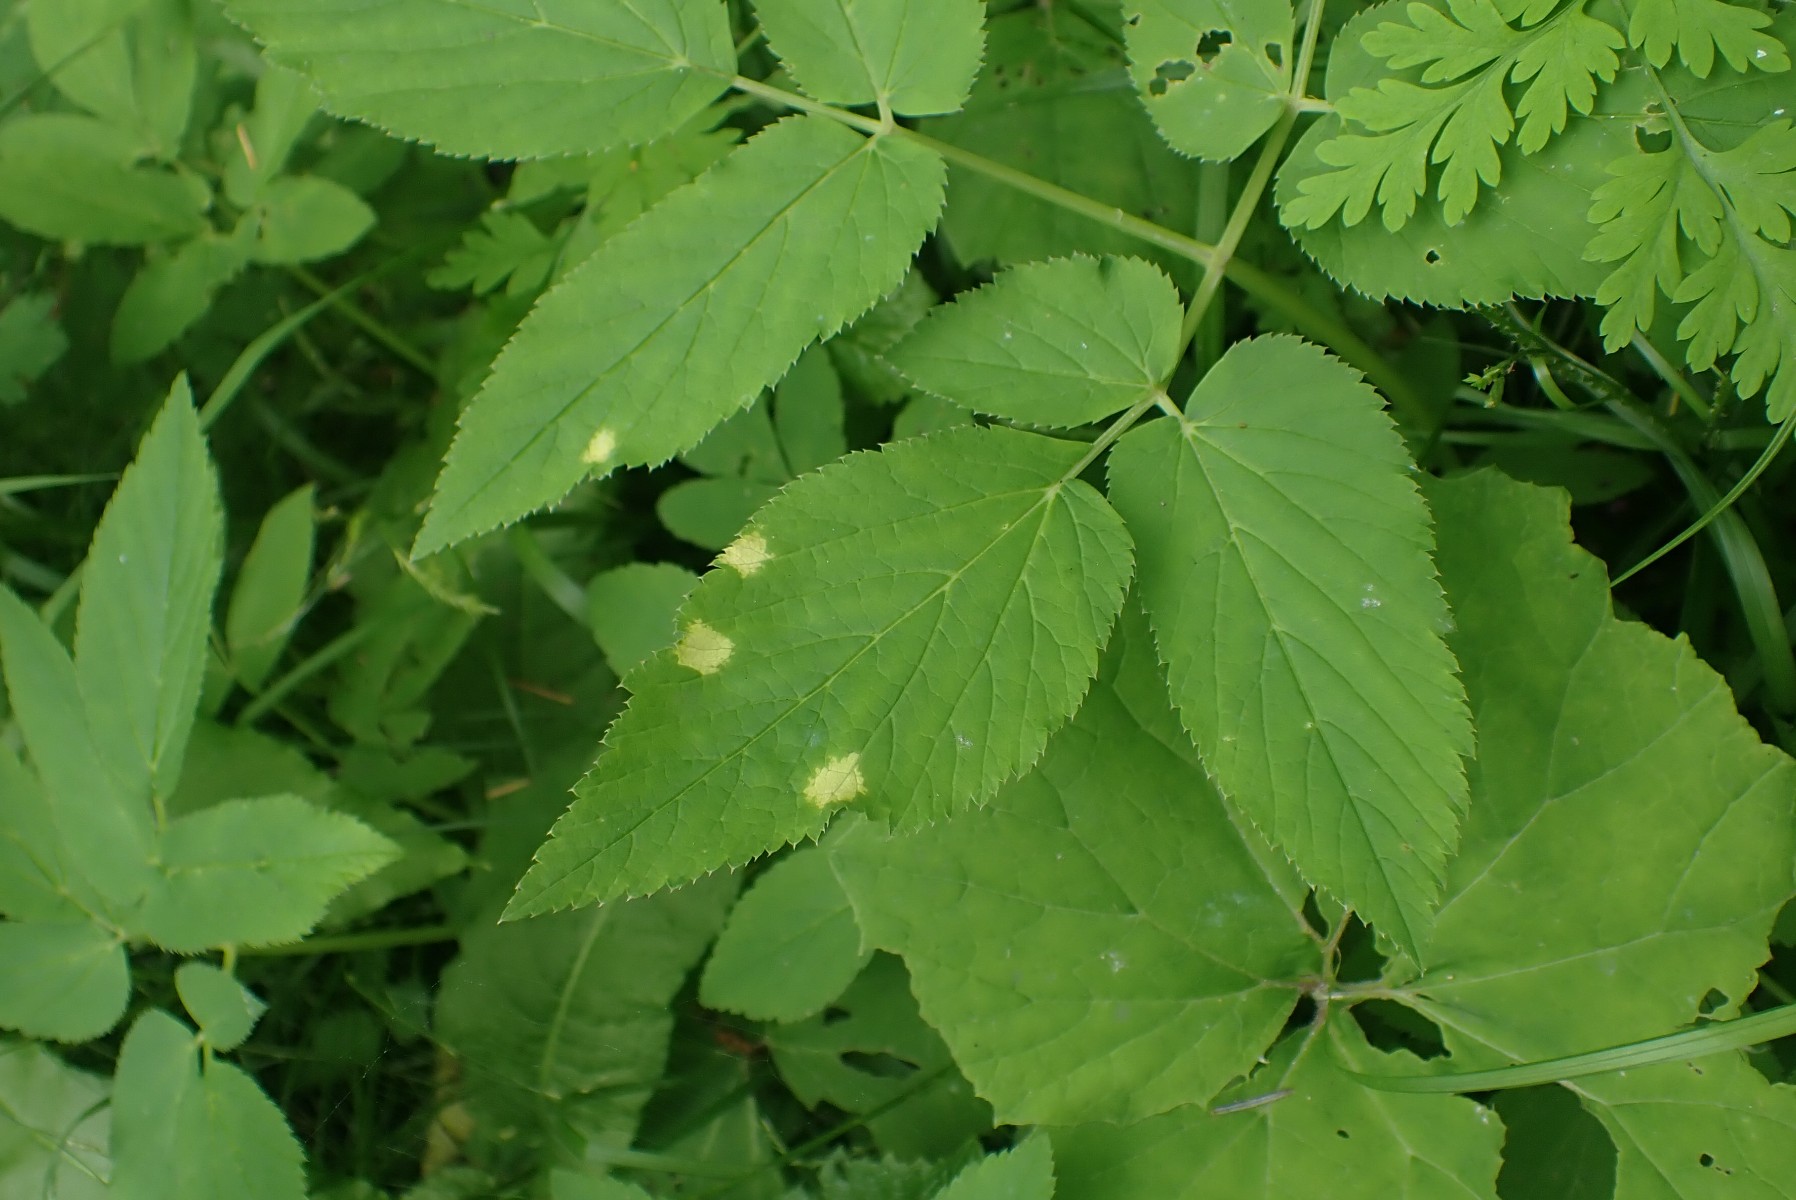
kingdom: Chromista
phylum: Oomycota
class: Peronosporea
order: Peronosporales
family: Peronosporaceae
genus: Peronospora
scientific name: Peronospora crustosa
